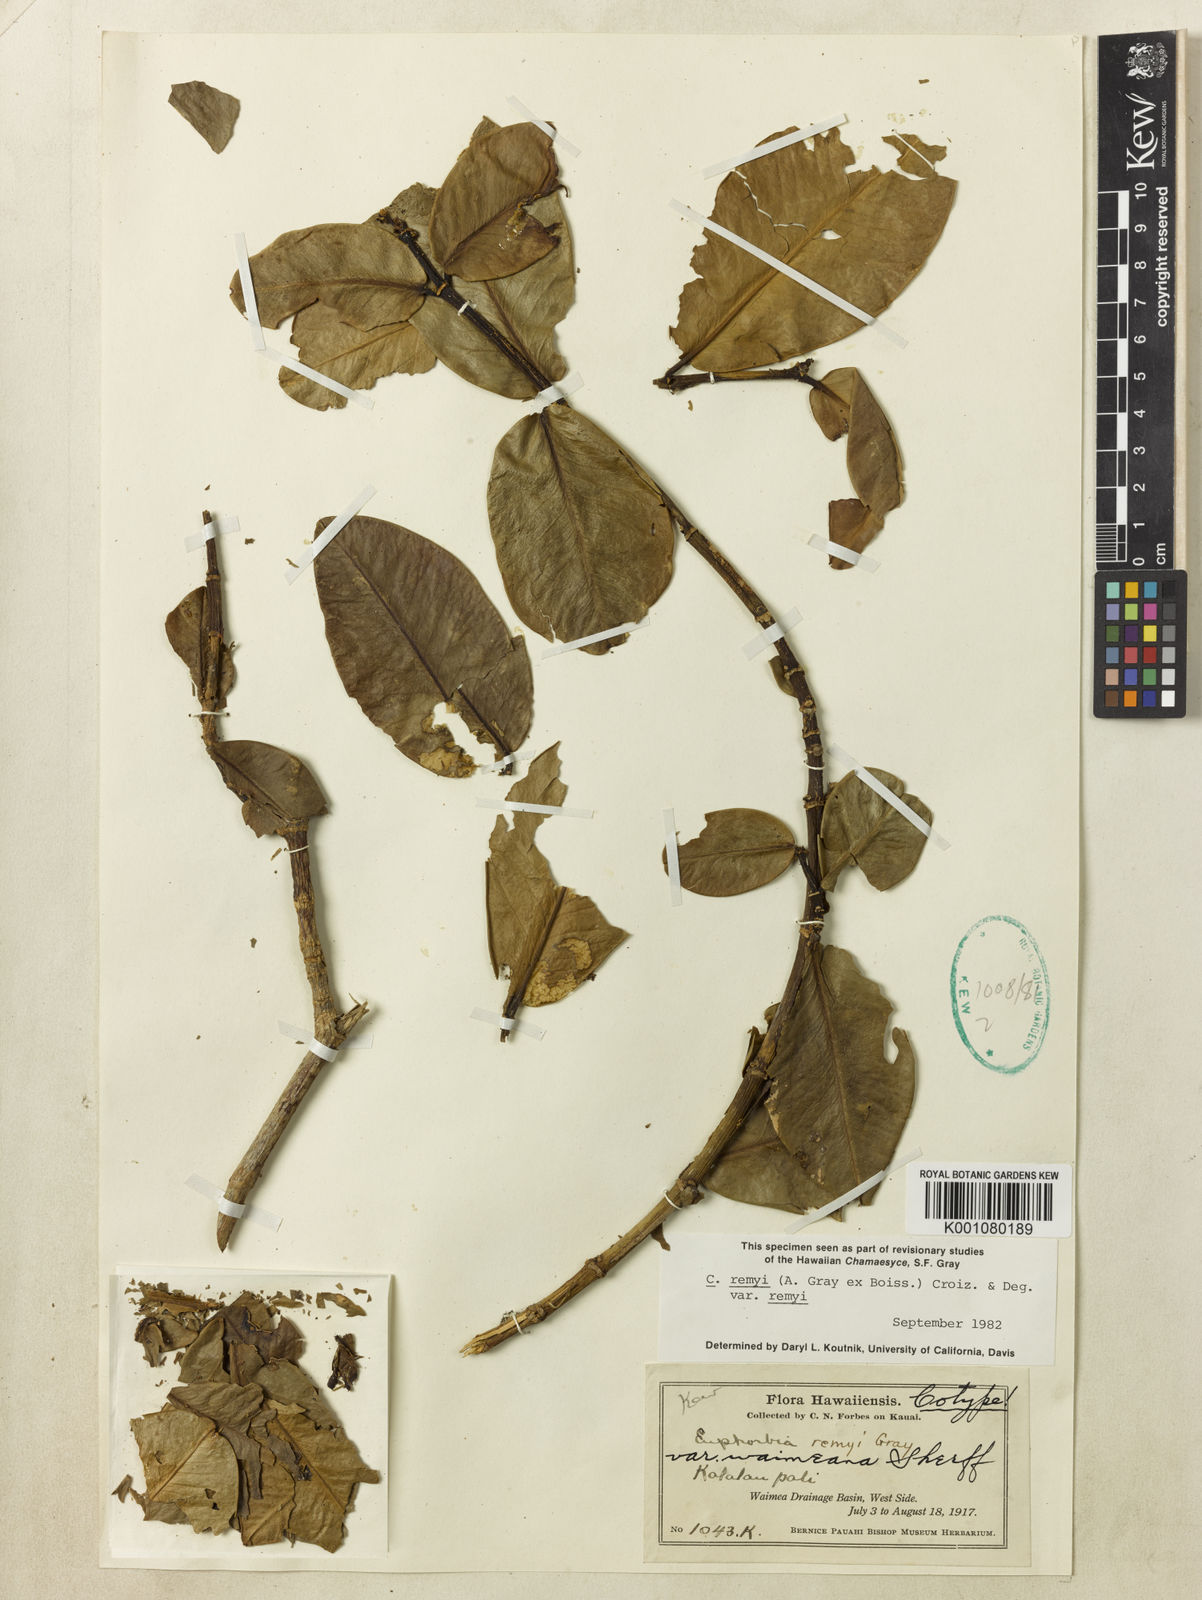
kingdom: Plantae
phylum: Tracheophyta
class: Magnoliopsida
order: Malpighiales
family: Euphorbiaceae
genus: Euphorbia
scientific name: Euphorbia remyi
